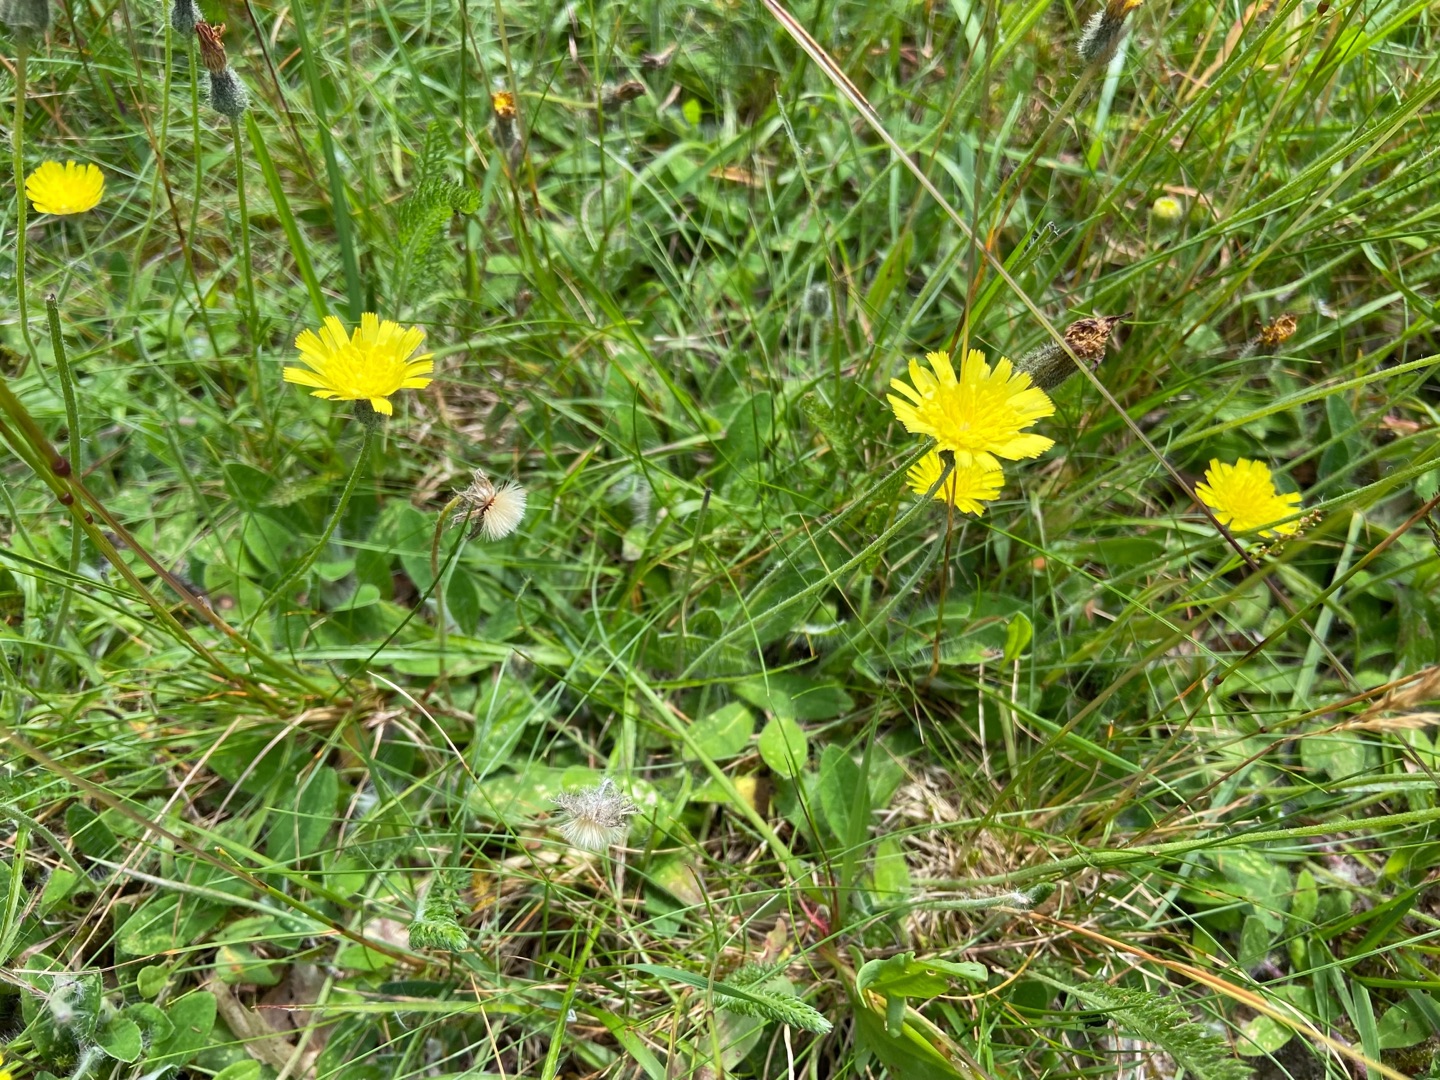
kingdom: Plantae
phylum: Tracheophyta
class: Magnoliopsida
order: Asterales
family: Asteraceae
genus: Pilosella
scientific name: Pilosella officinarum
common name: Håret høgeurt
